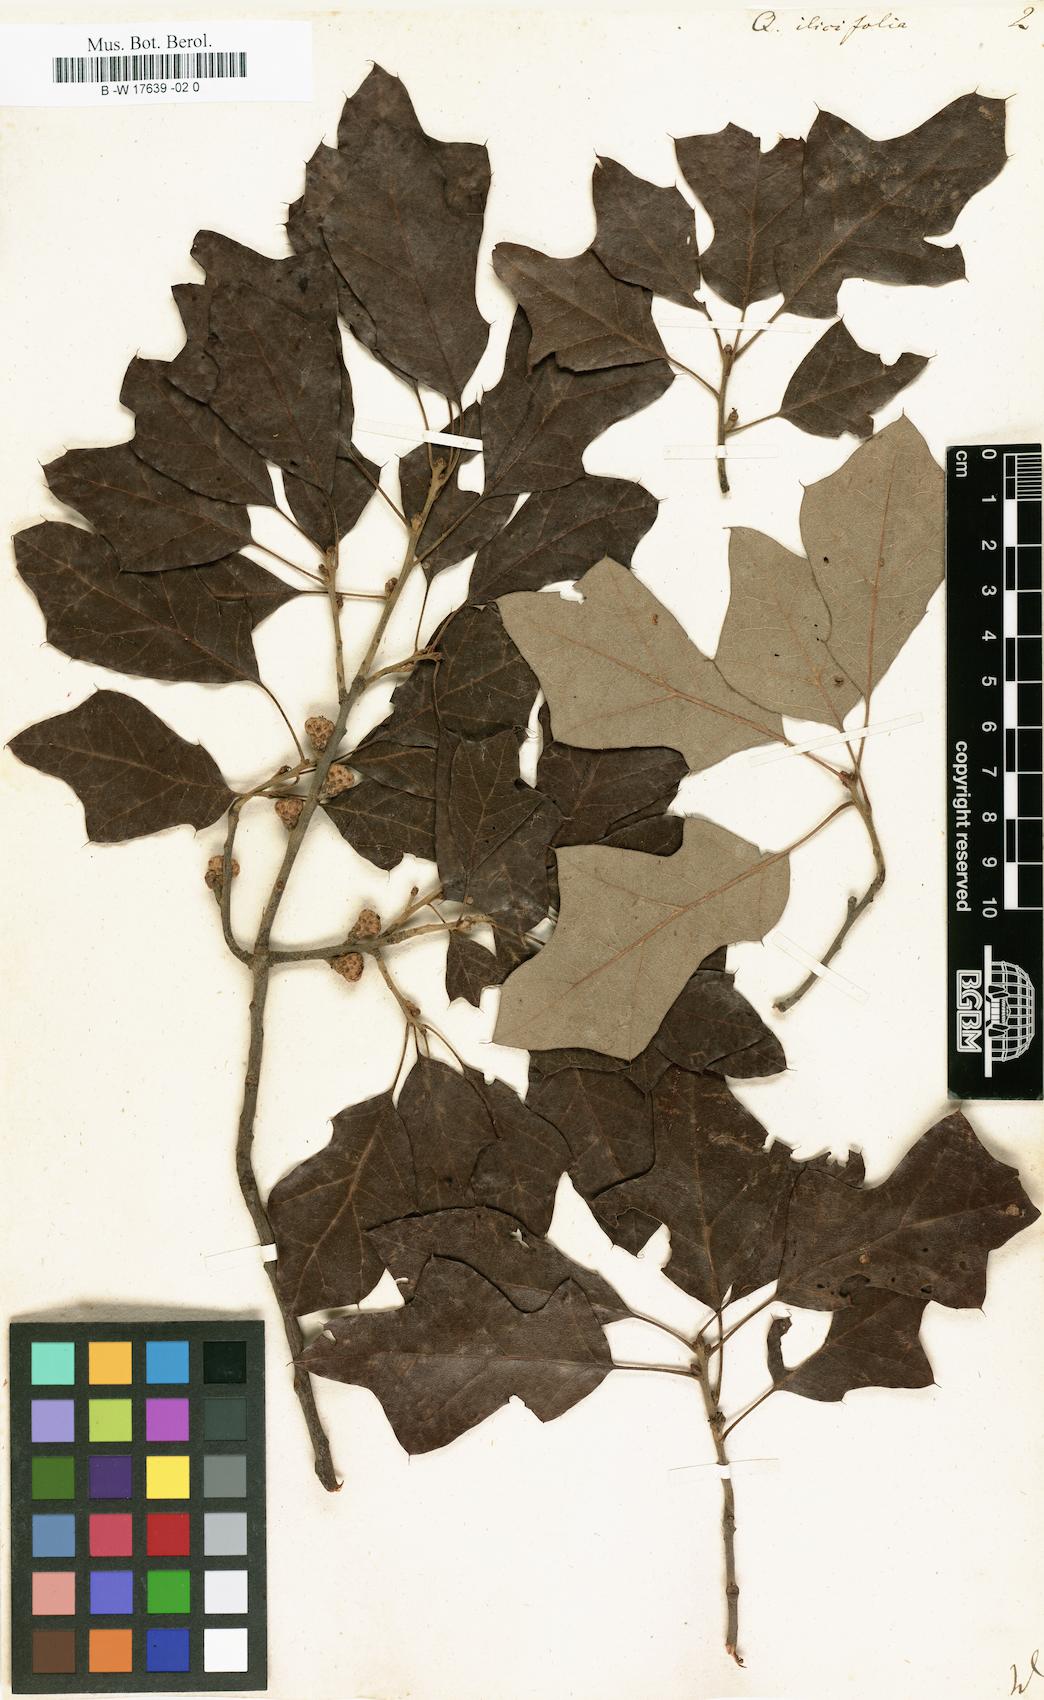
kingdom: Plantae
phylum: Tracheophyta
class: Magnoliopsida
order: Fagales
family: Fagaceae
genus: Quercus
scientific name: Quercus ilicifolia
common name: Bear oak
